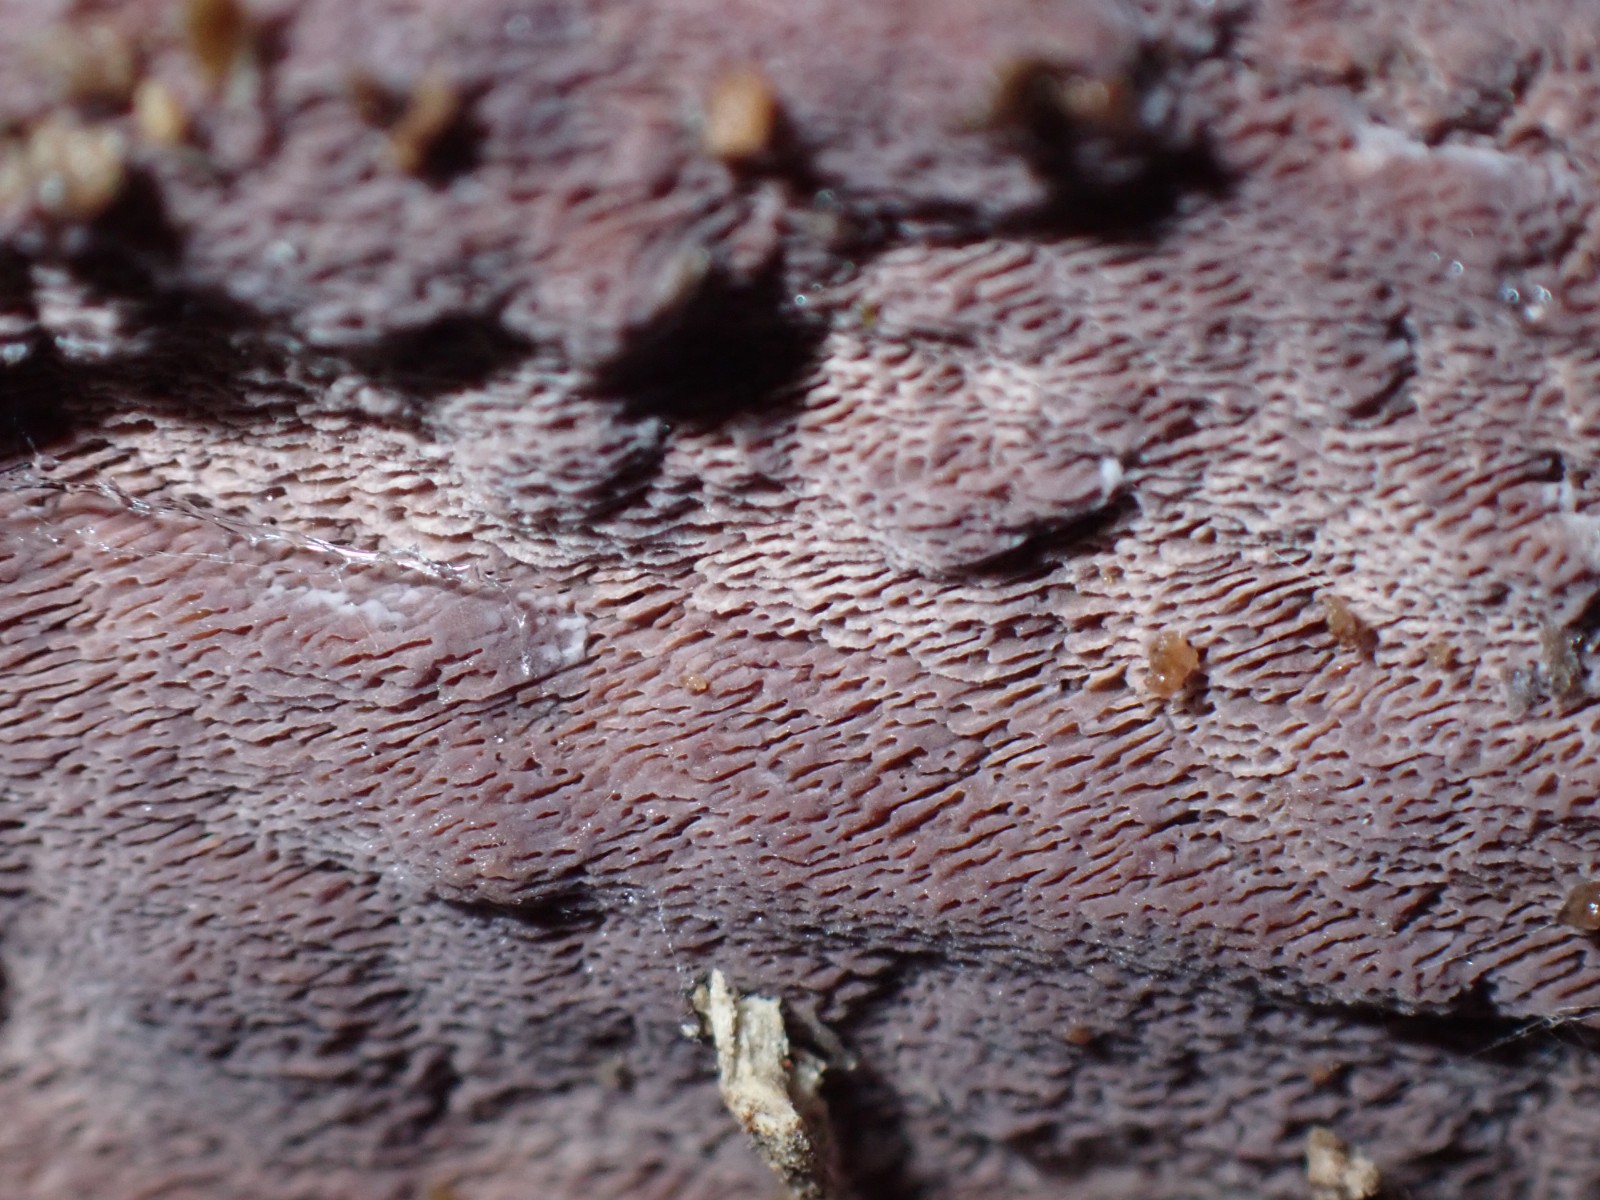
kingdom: Fungi
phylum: Basidiomycota
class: Agaricomycetes
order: Polyporales
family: Irpicaceae
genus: Ceriporia
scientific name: Ceriporia excelsa
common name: lilla voksporesvamp
